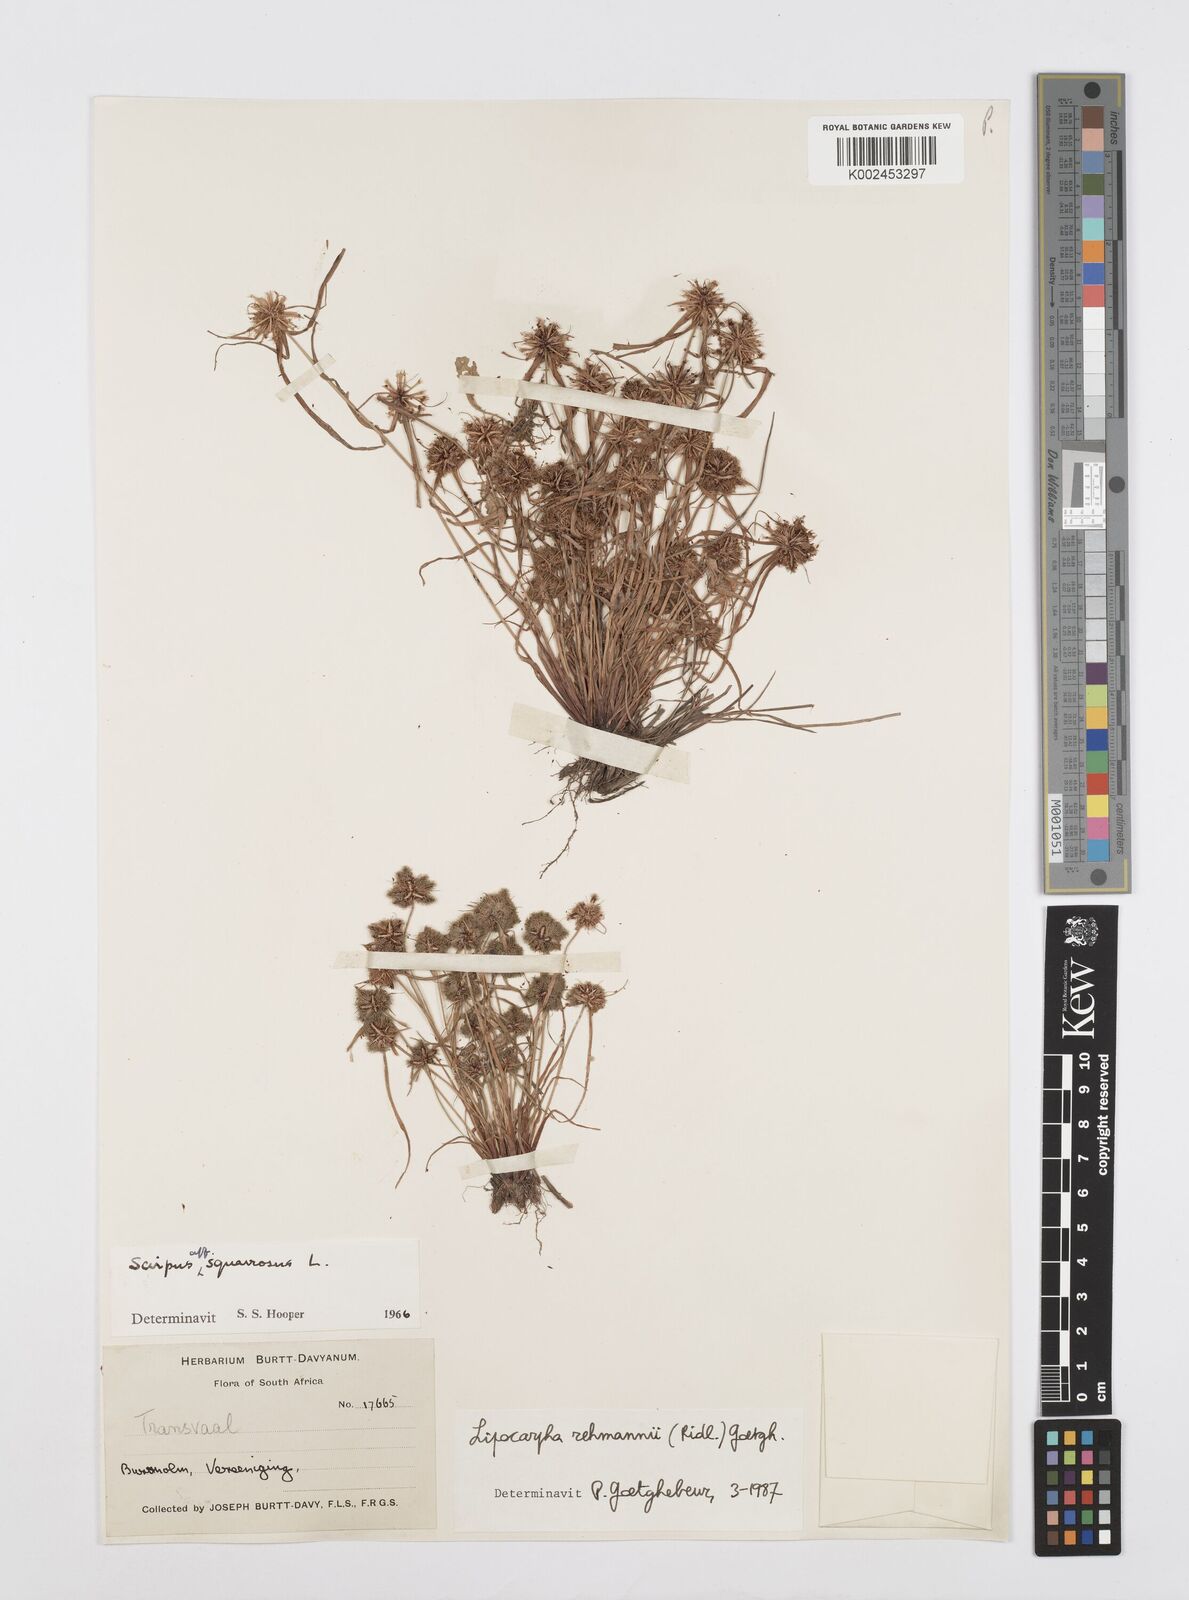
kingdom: Plantae
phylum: Tracheophyta
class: Liliopsida
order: Poales
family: Cyperaceae
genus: Cyperus
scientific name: Cyperus sanguinolentus
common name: Purpleglume flatsedge
